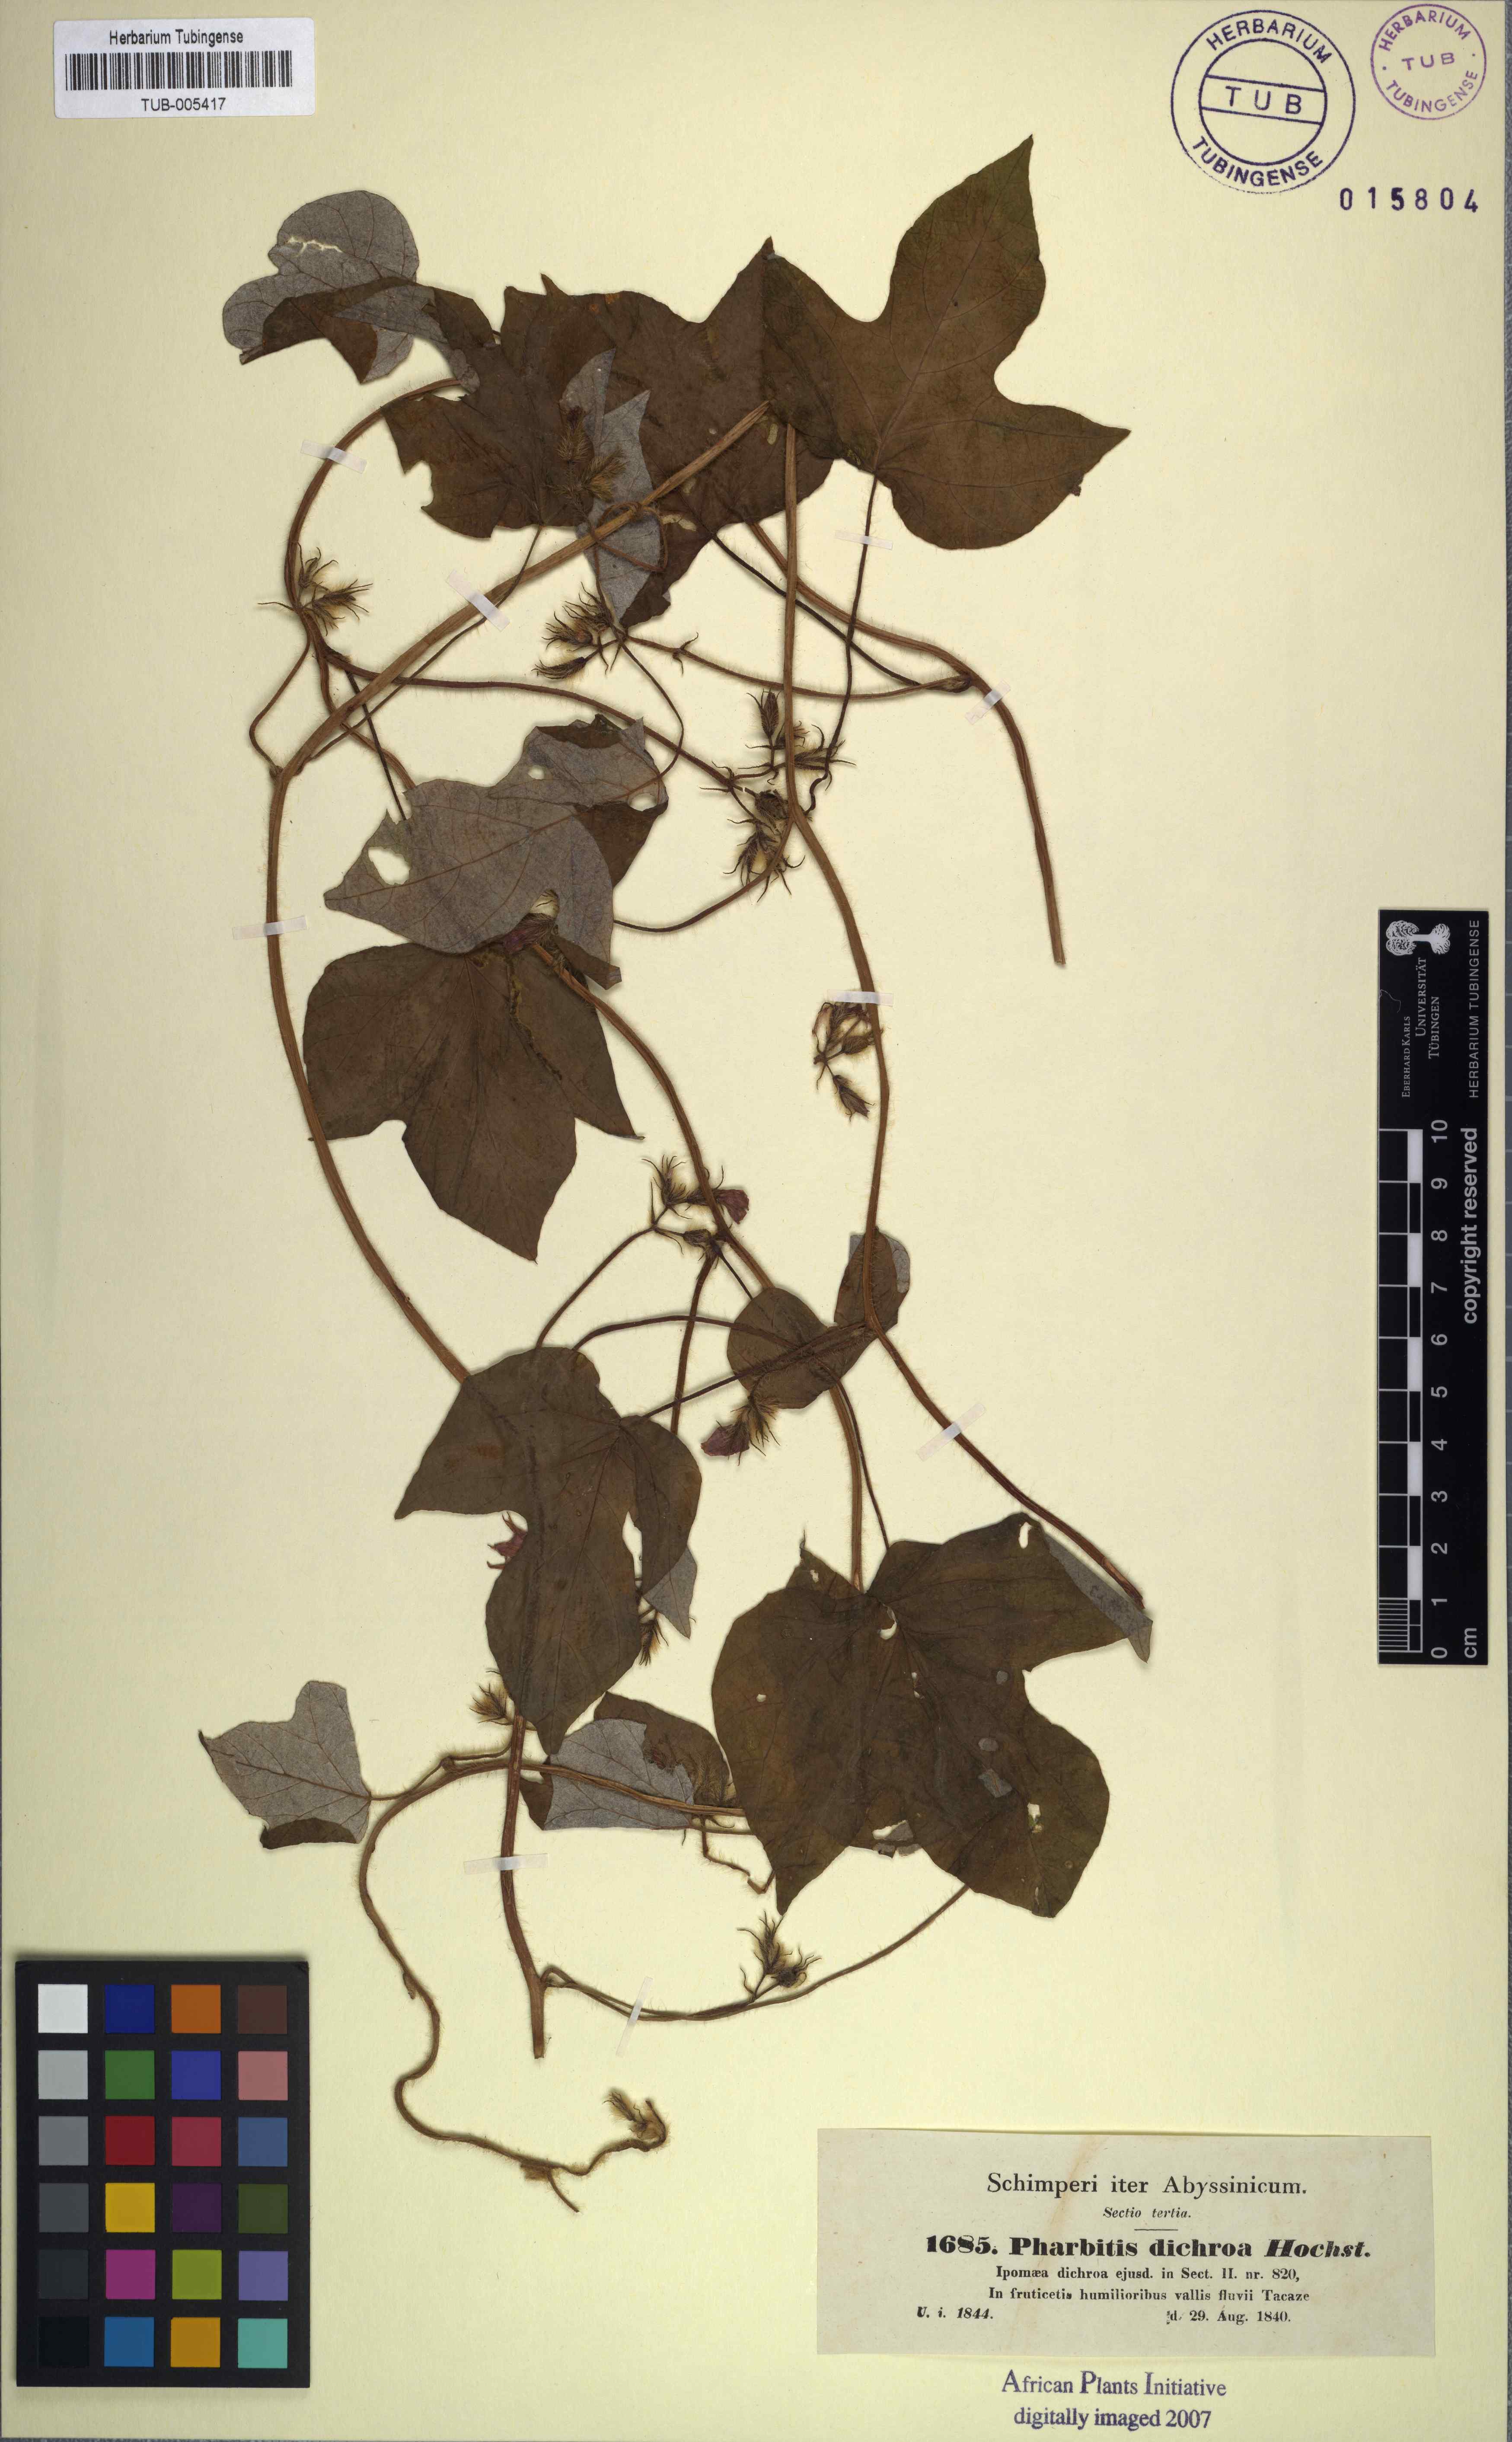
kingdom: Plantae
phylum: Tracheophyta
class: Magnoliopsida
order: Solanales
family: Convolvulaceae
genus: Ipomoea
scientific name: Ipomoea arachnosperma
